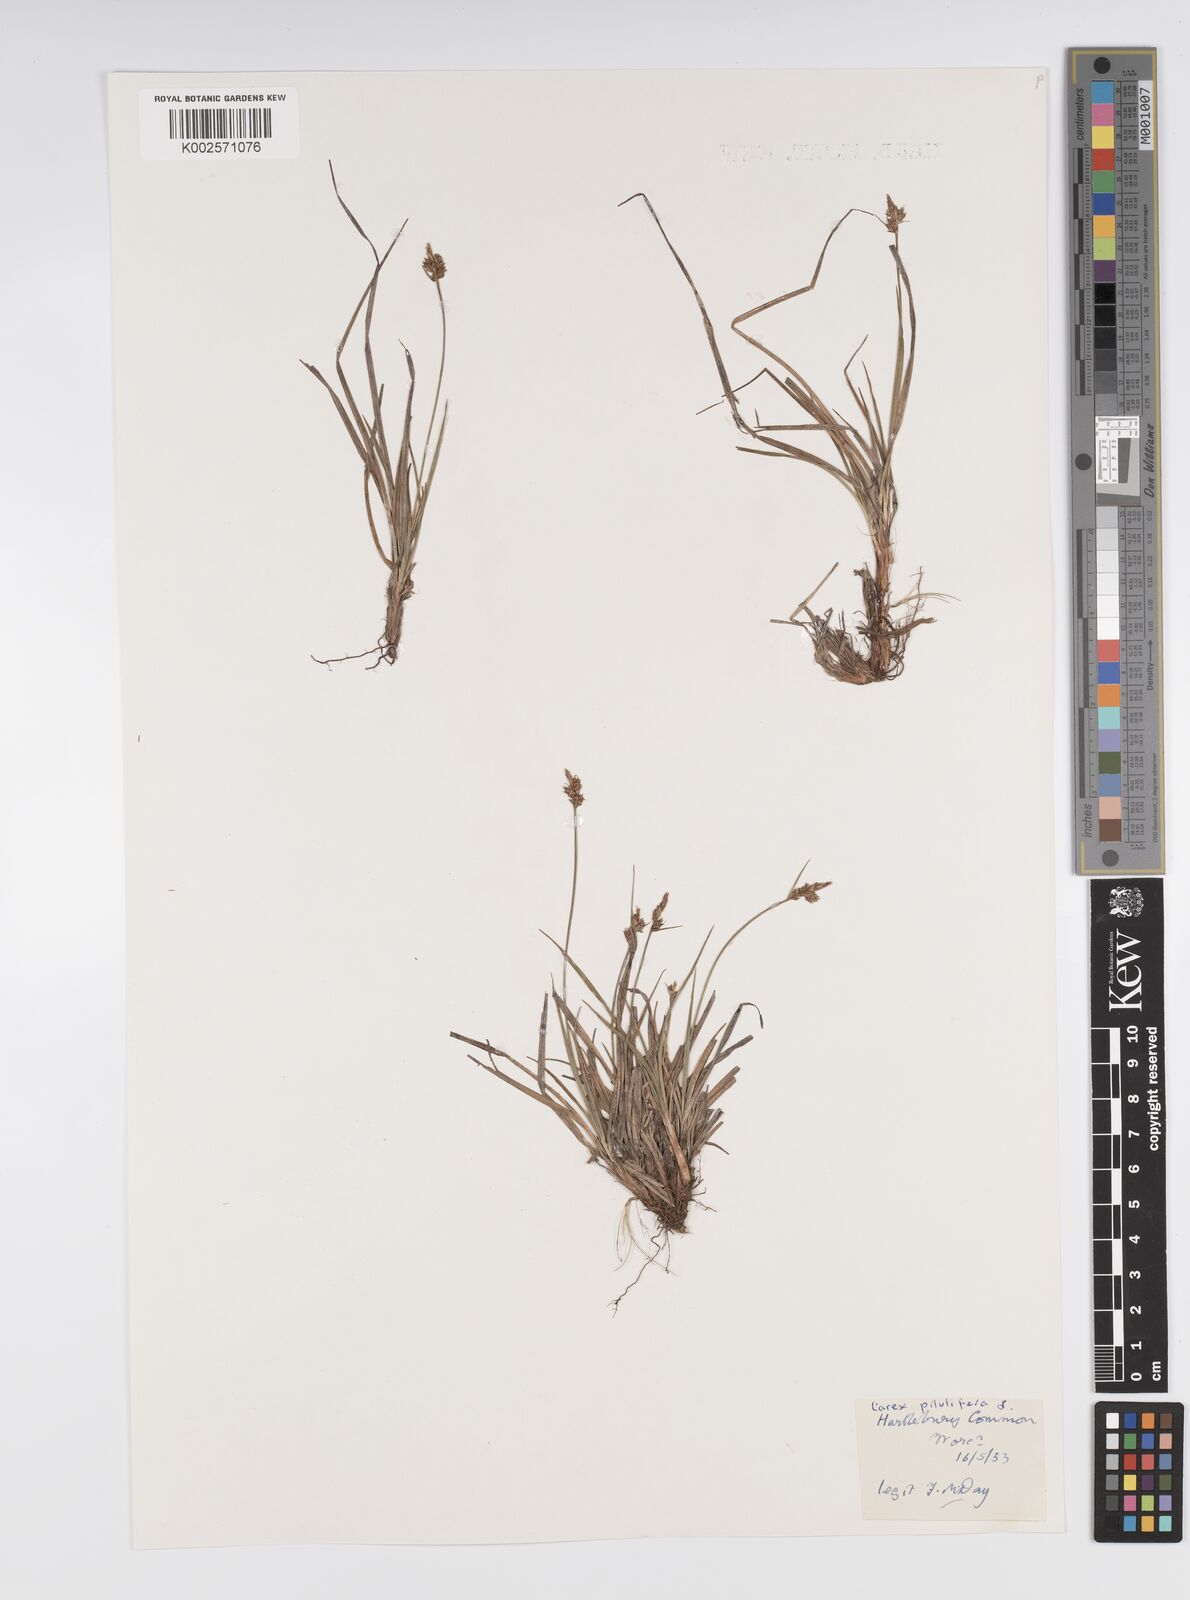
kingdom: Plantae
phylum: Tracheophyta
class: Liliopsida
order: Poales
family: Cyperaceae
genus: Carex
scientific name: Carex pilulifera
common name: Pill sedge
